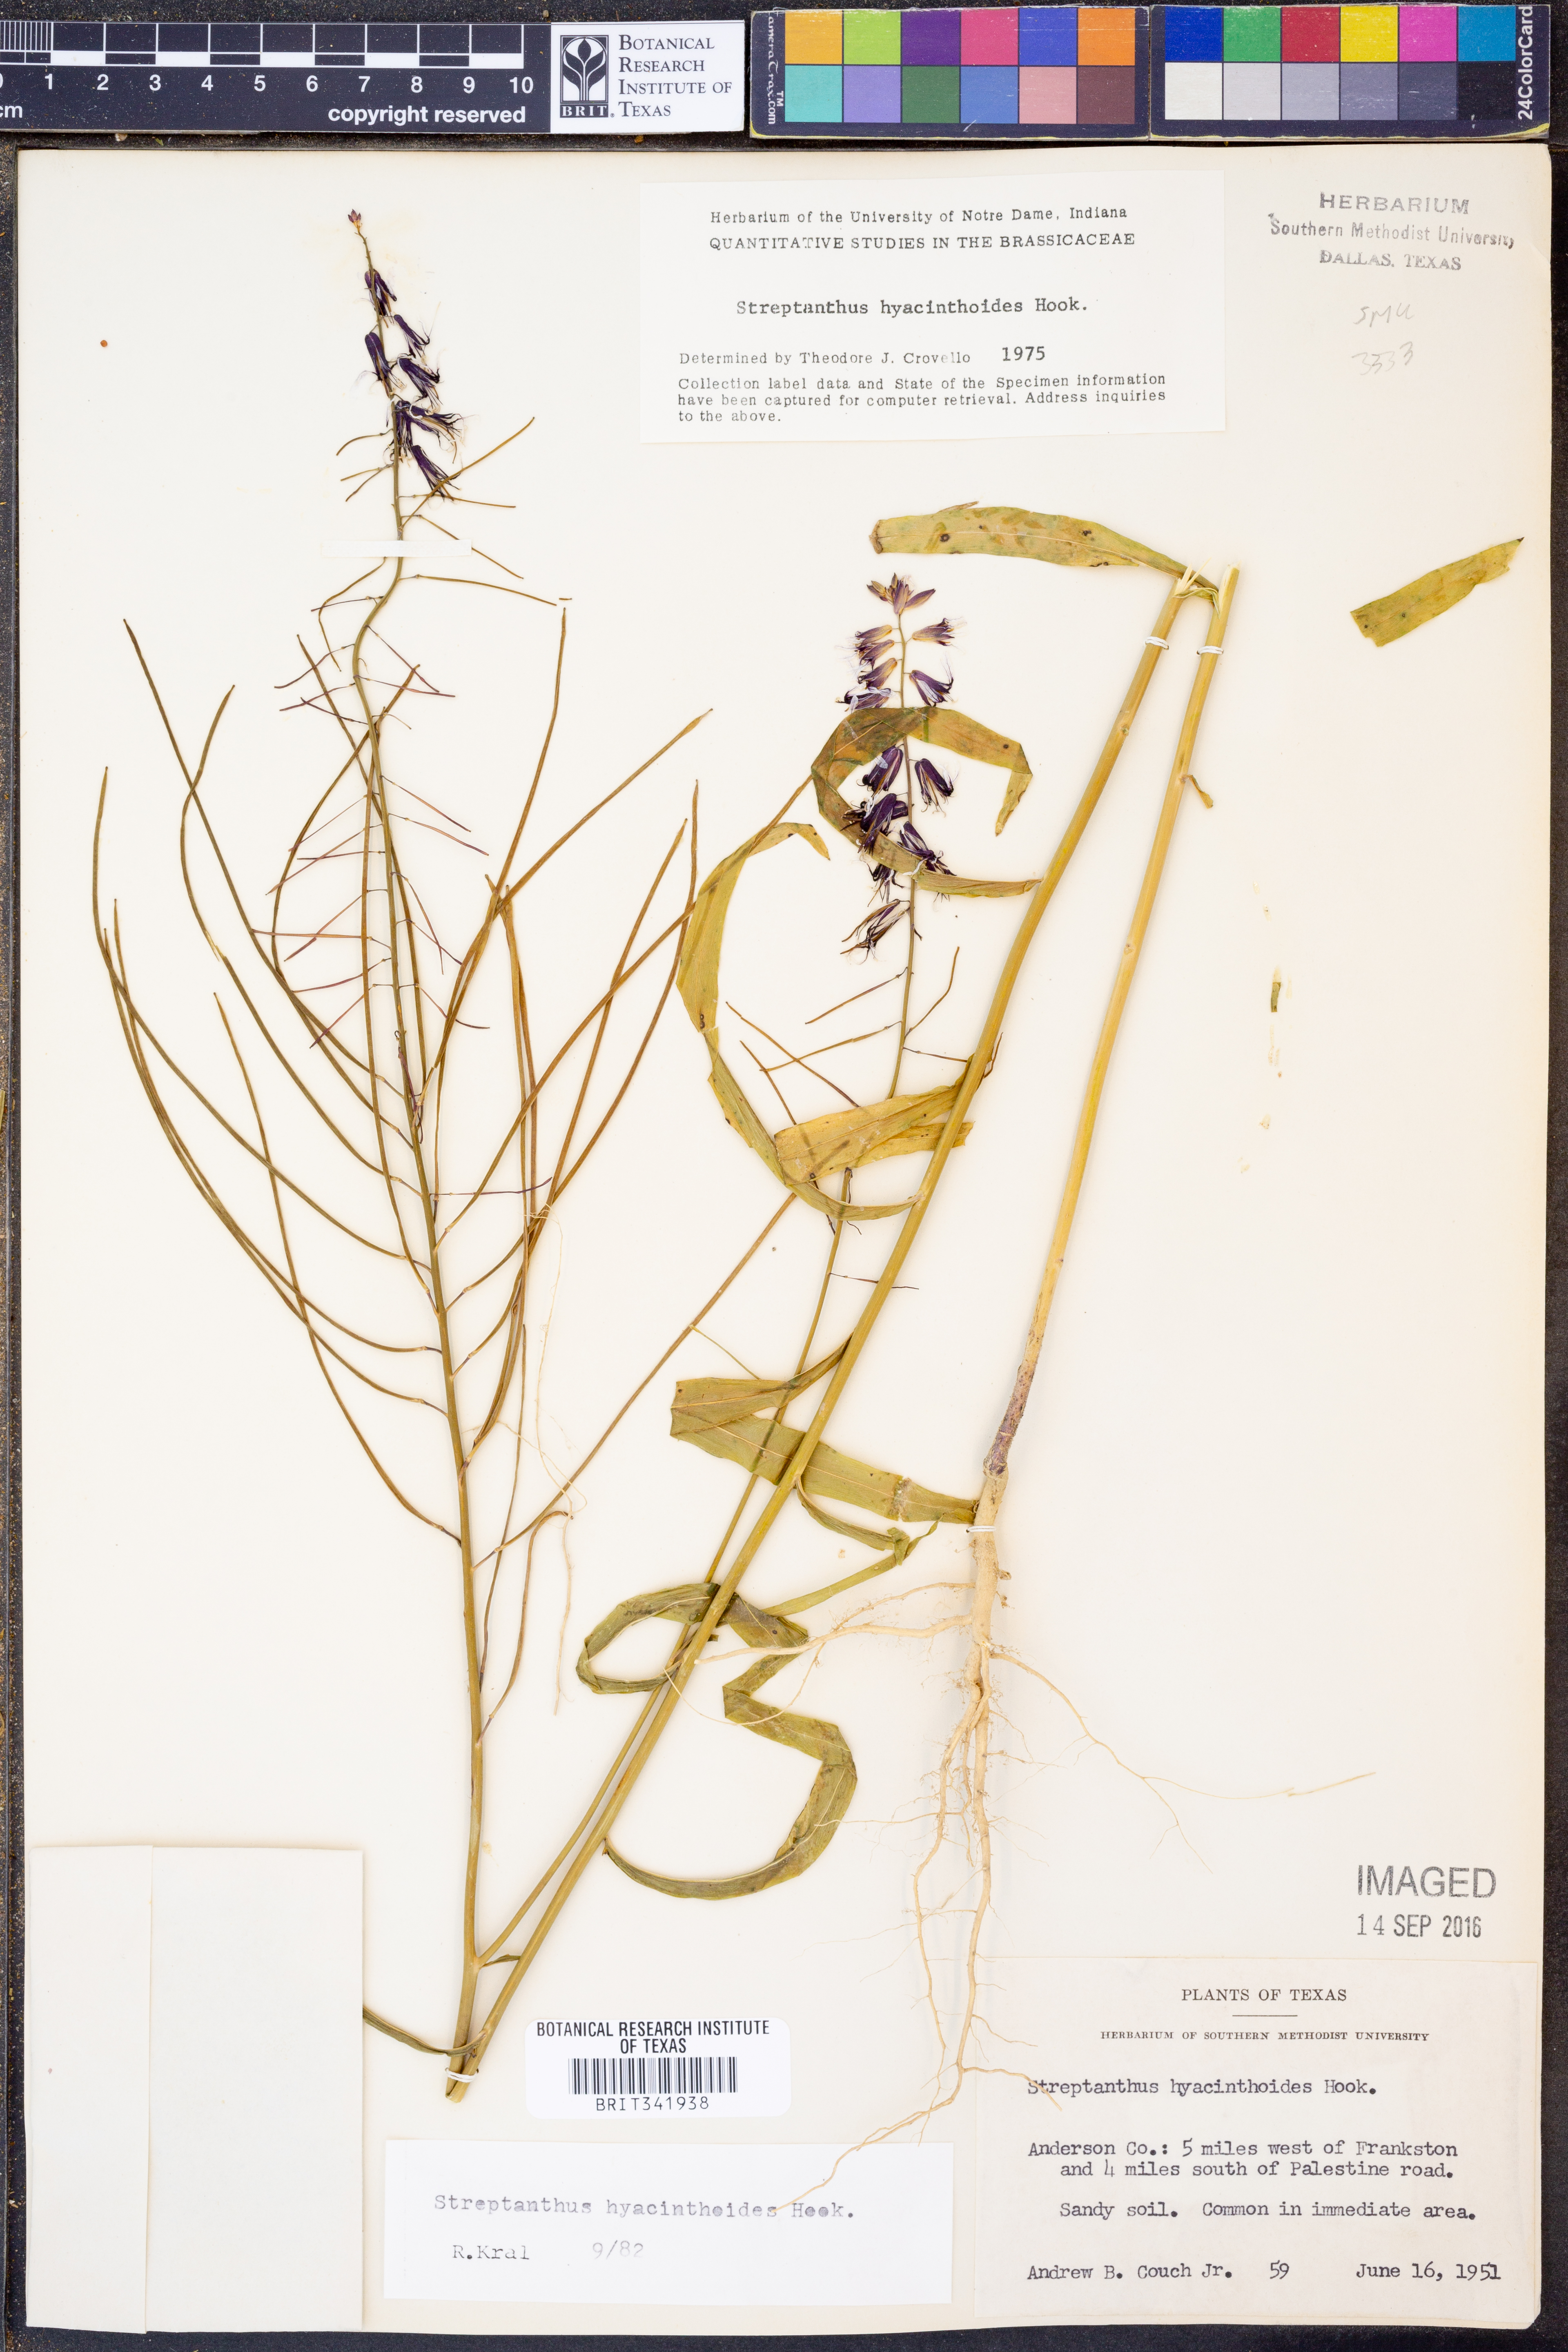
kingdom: Plantae
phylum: Tracheophyta
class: Magnoliopsida
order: Brassicales
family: Brassicaceae
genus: Streptanthus
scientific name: Streptanthus hyacinthoides
